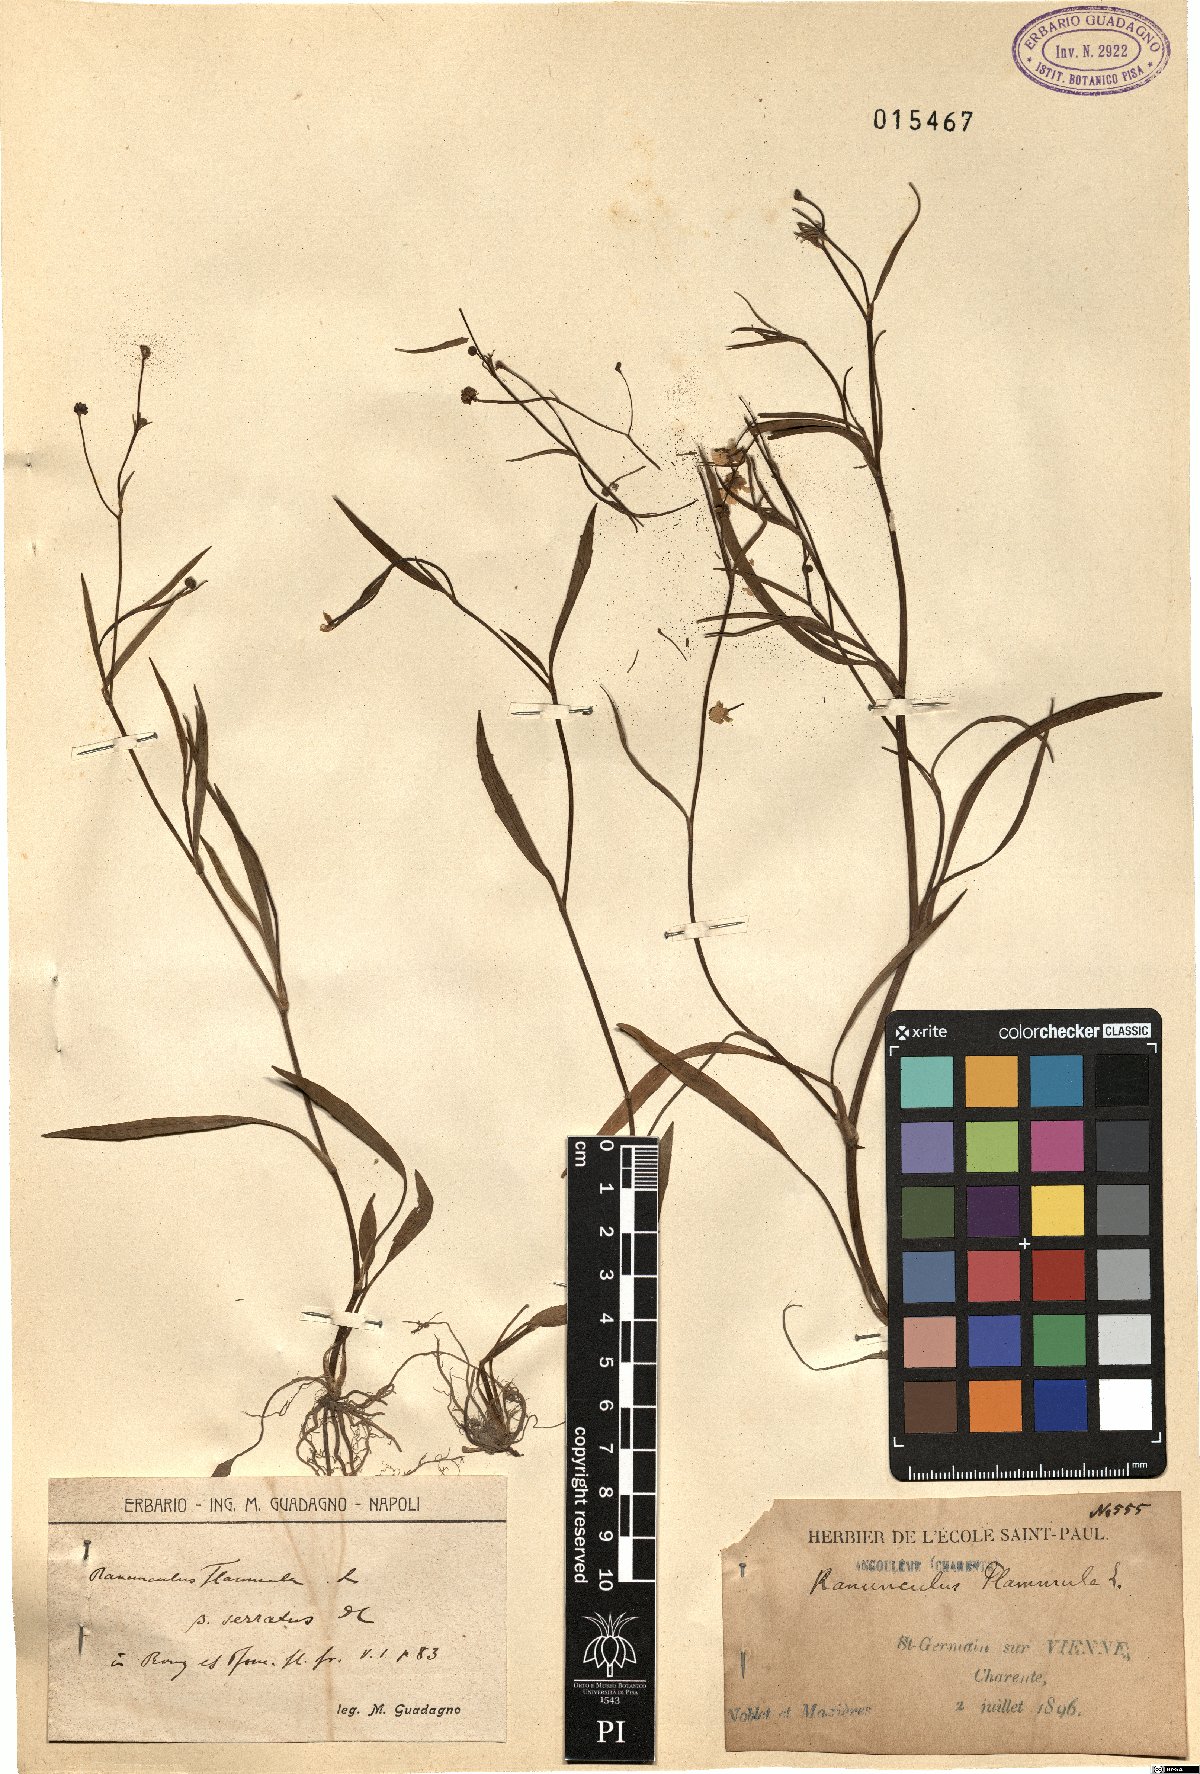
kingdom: Plantae
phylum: Tracheophyta
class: Magnoliopsida
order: Ranunculales
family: Ranunculaceae
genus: Ranunculus
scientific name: Ranunculus flammula
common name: Lesser spearwort
